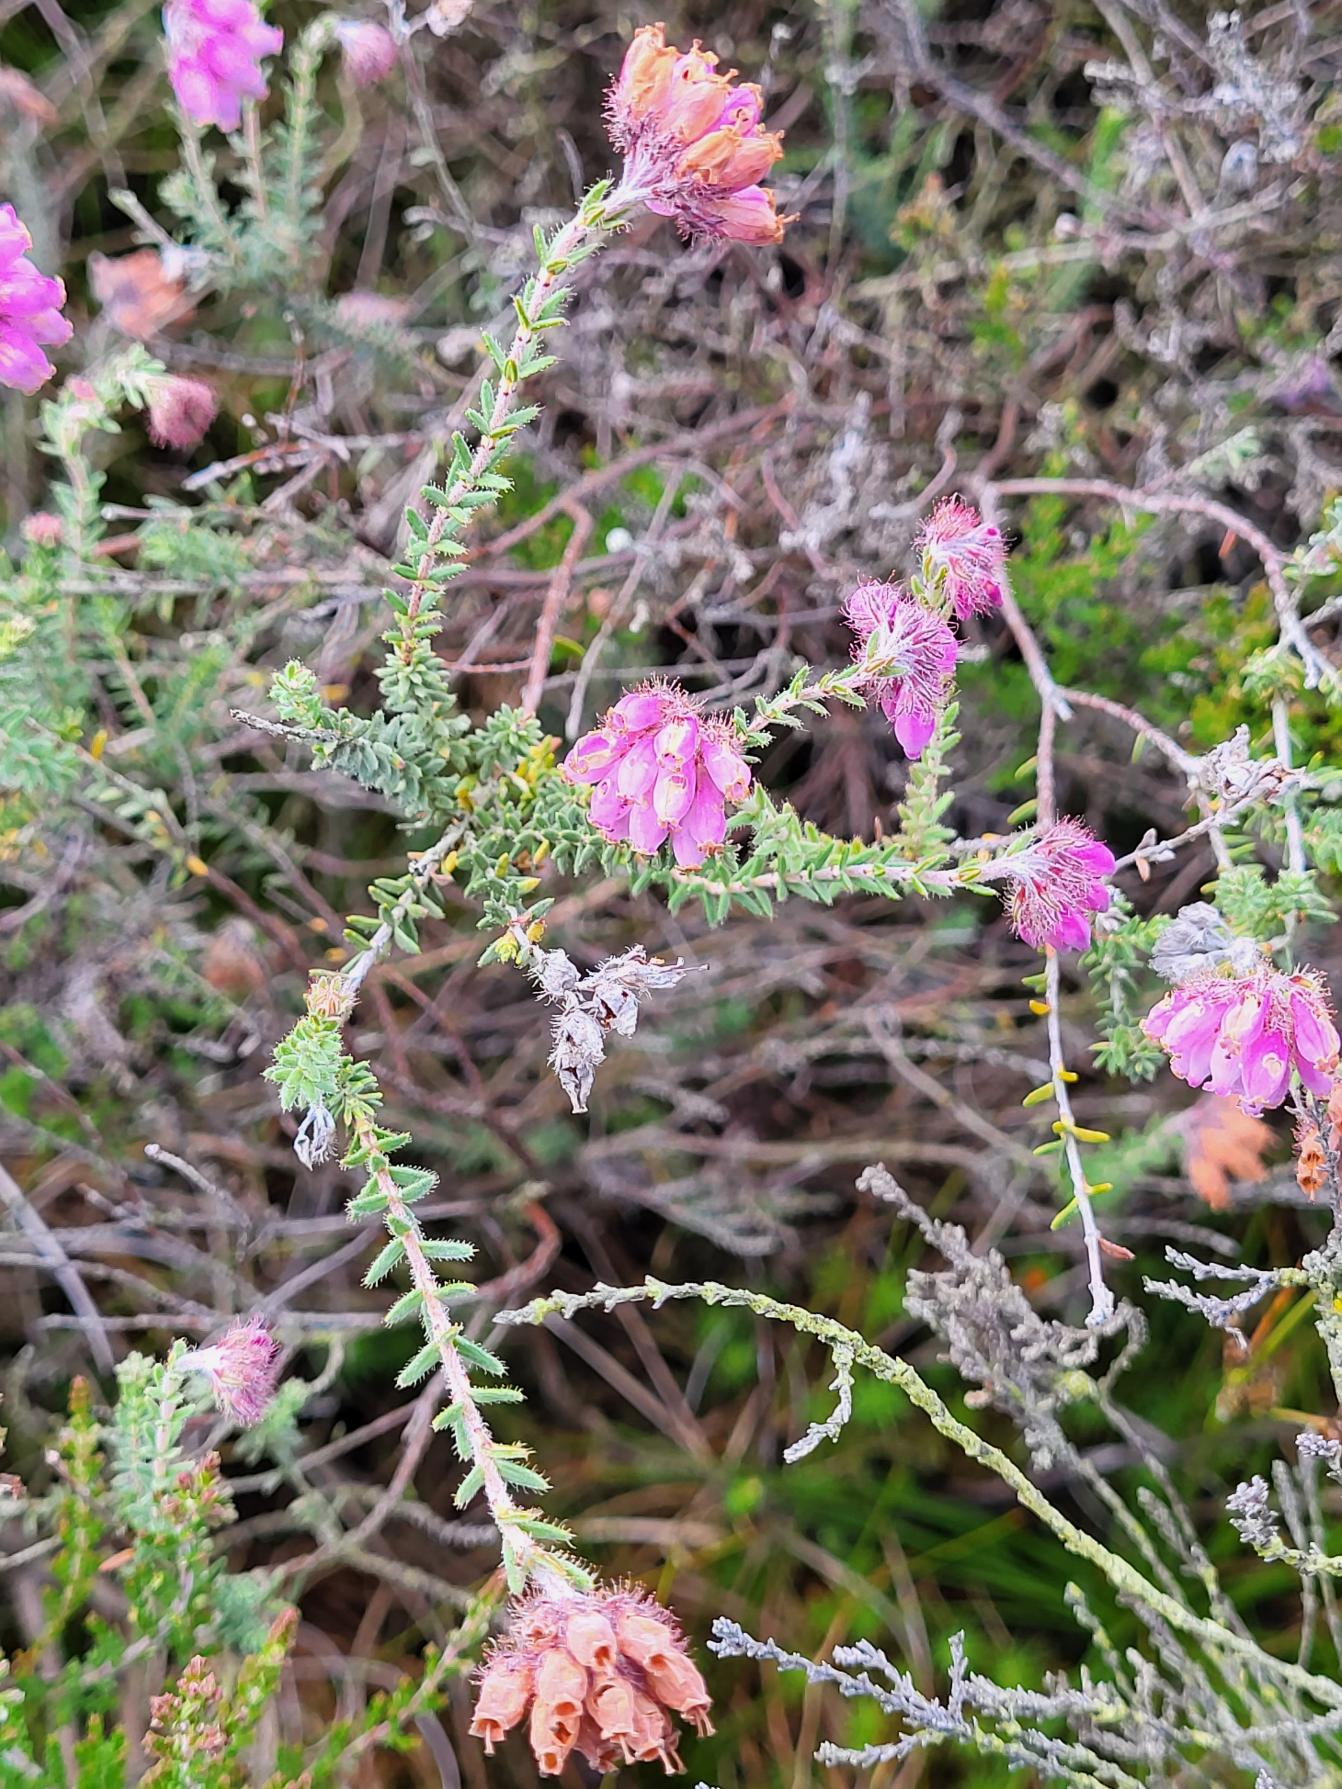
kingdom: Plantae
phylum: Tracheophyta
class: Magnoliopsida
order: Ericales
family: Ericaceae
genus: Erica
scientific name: Erica tetralix
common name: Klokkelyng
